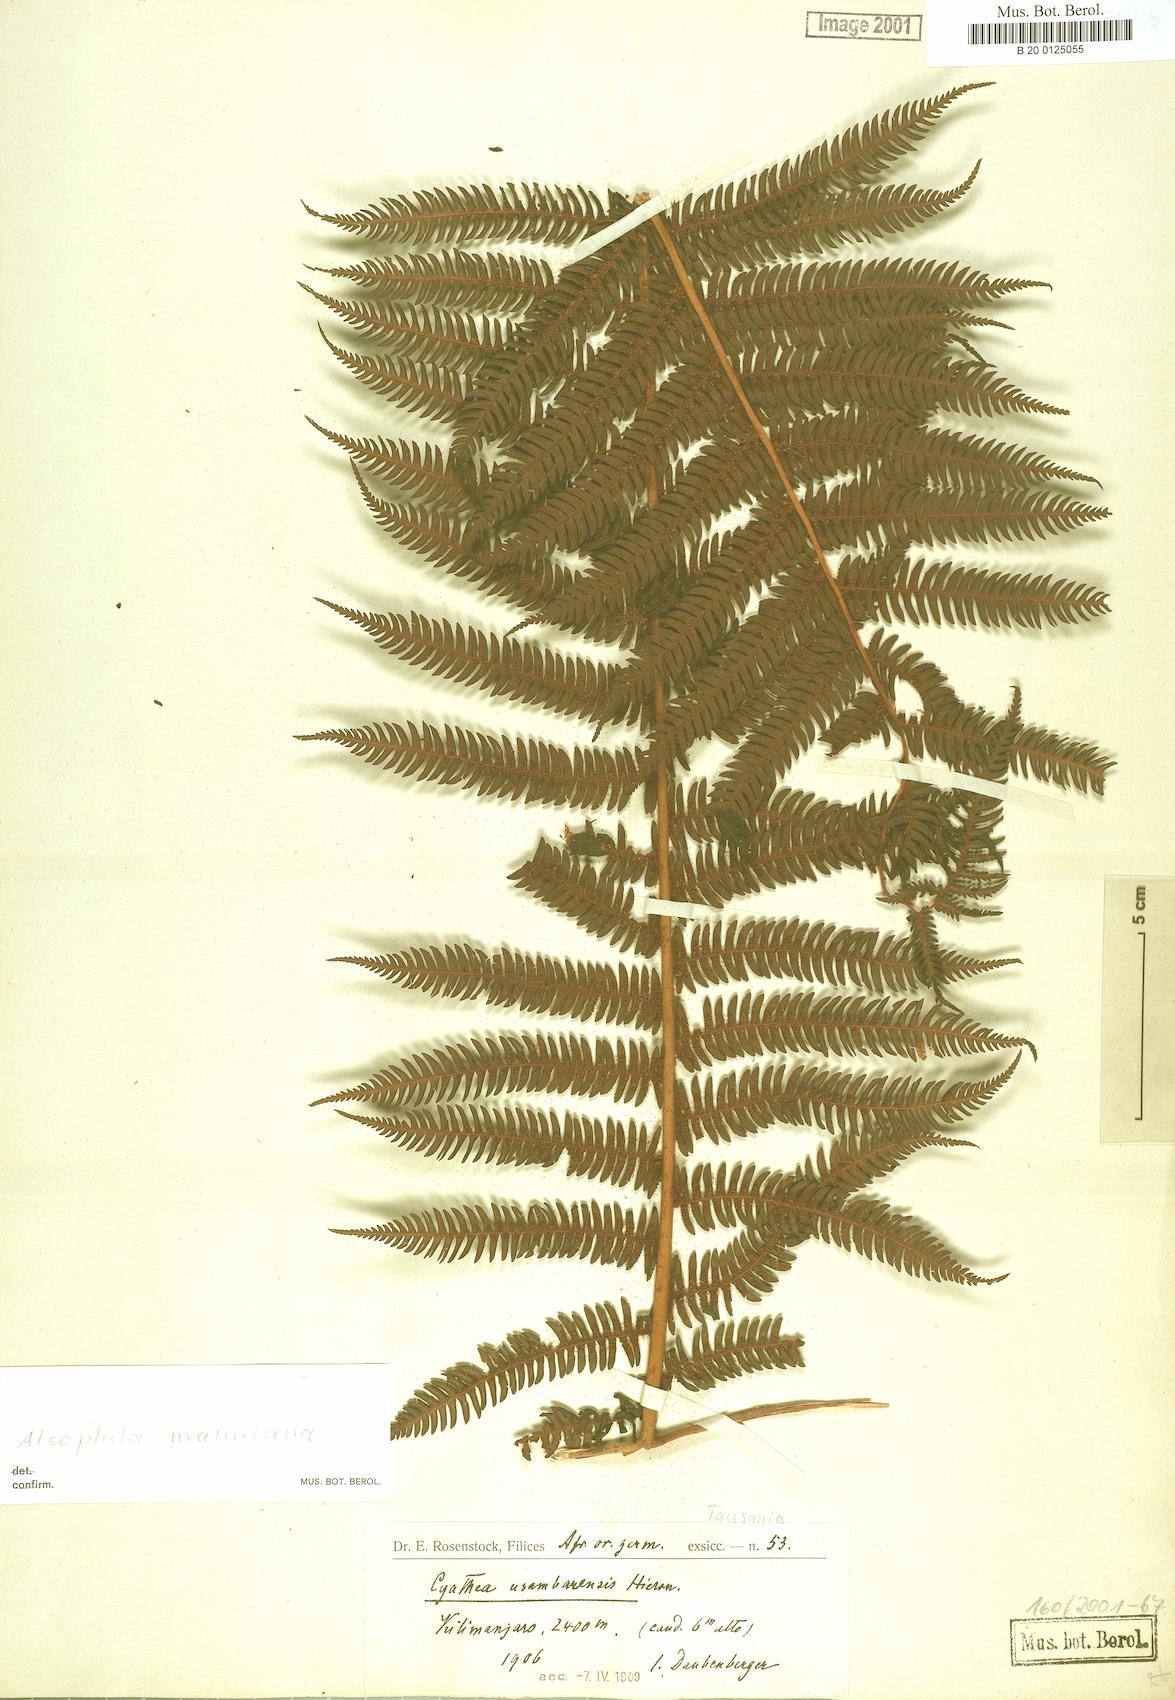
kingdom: Plantae
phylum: Tracheophyta
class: Polypodiopsida
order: Cyatheales
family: Cyatheaceae
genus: Alsophila
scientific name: Alsophila manniana
